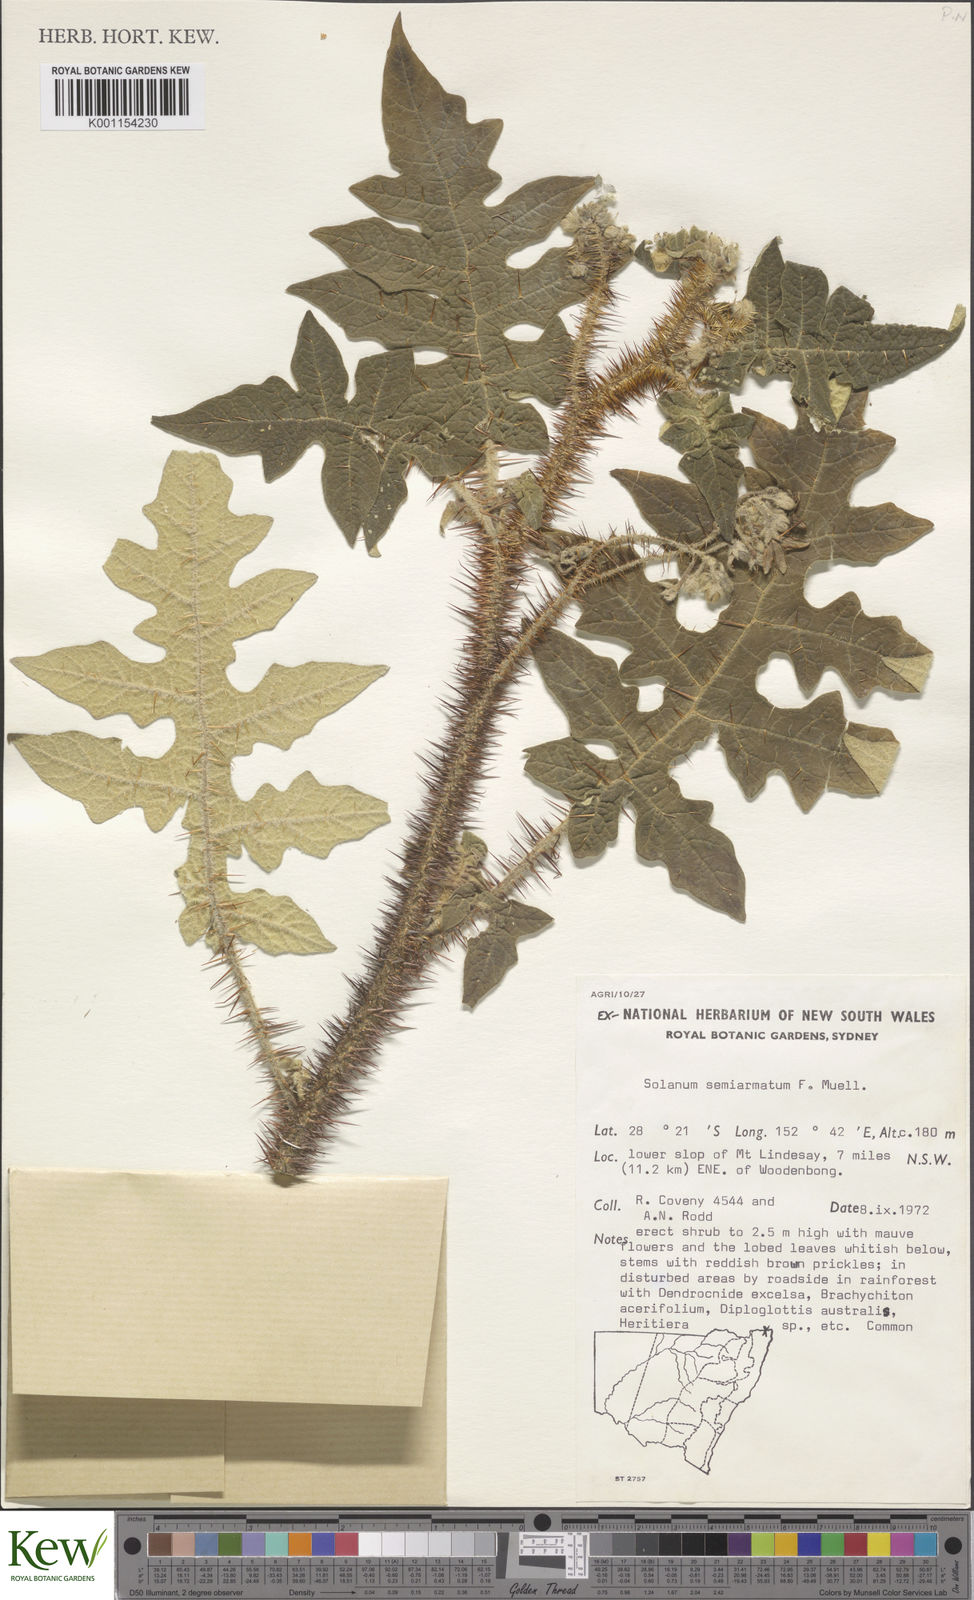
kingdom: Plantae
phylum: Tracheophyta
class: Magnoliopsida
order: Solanales
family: Solanaceae
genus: Solanum
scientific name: Solanum semiarmatum
